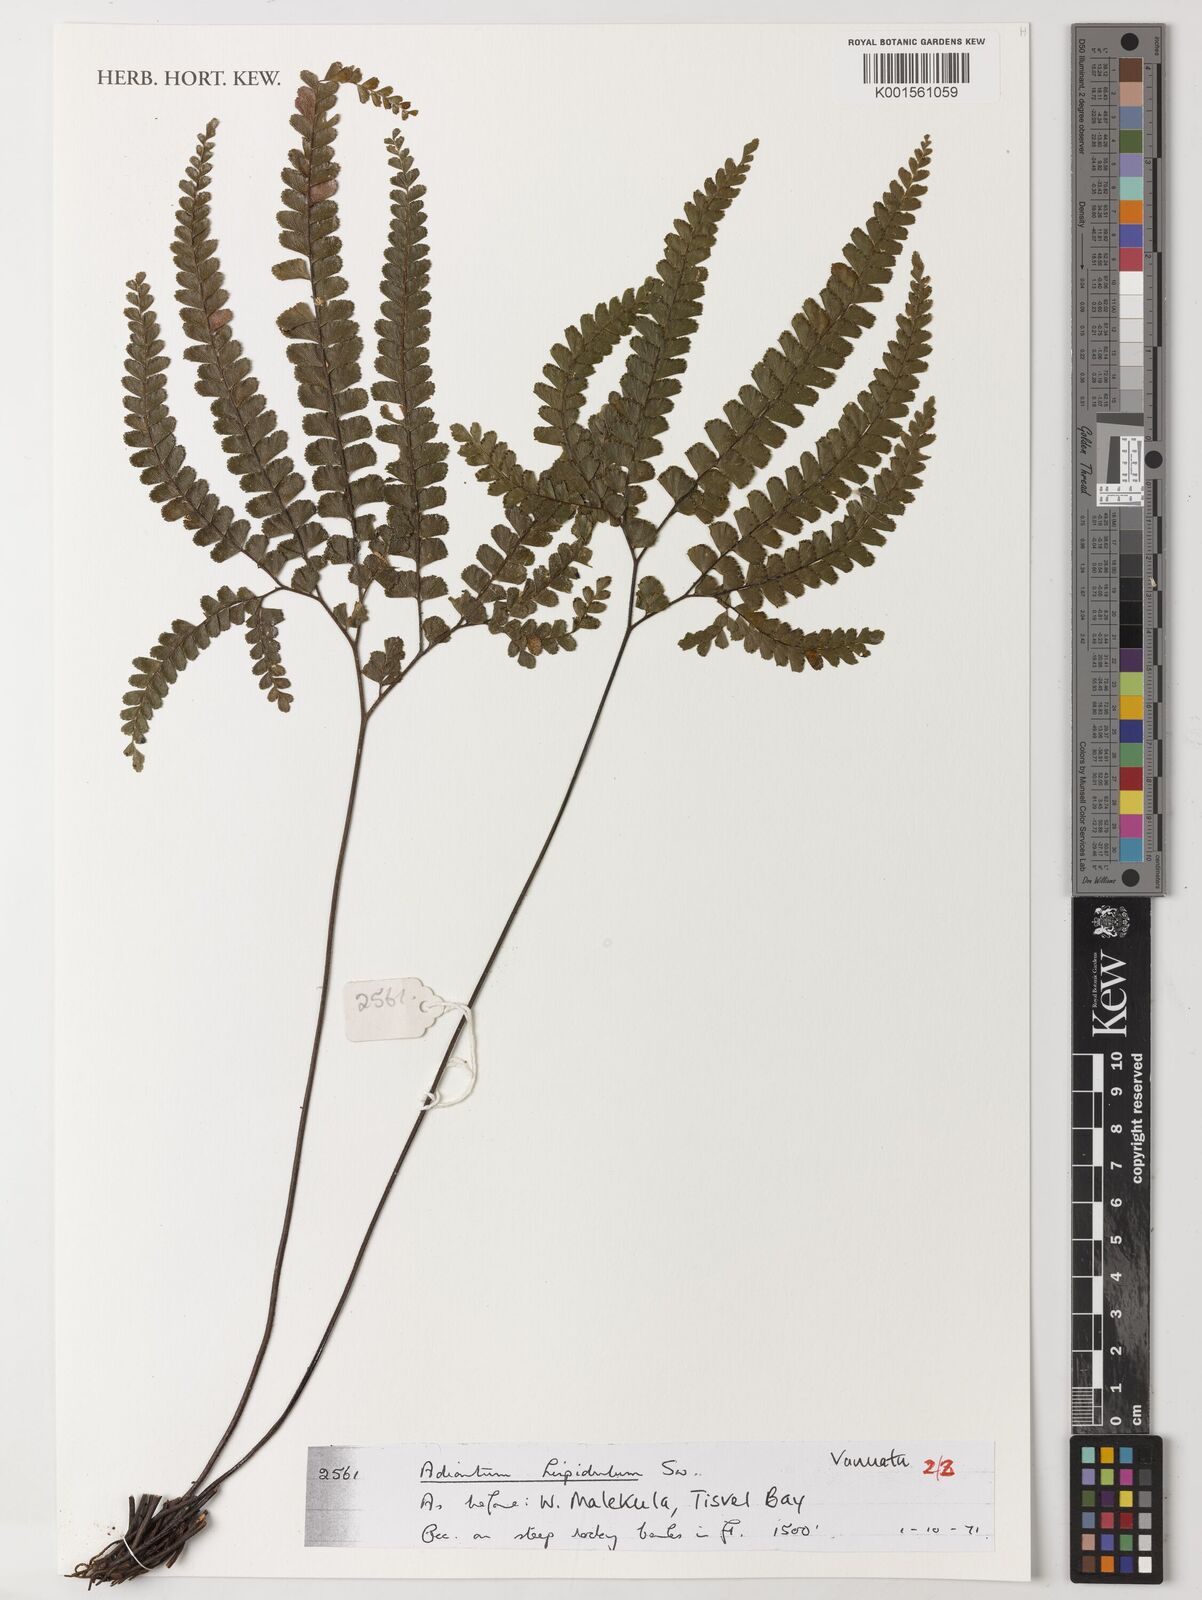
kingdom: Plantae
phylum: Tracheophyta
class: Polypodiopsida
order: Polypodiales
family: Pteridaceae
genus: Adiantum
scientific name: Adiantum hispidulum
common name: Rough maidenhair
